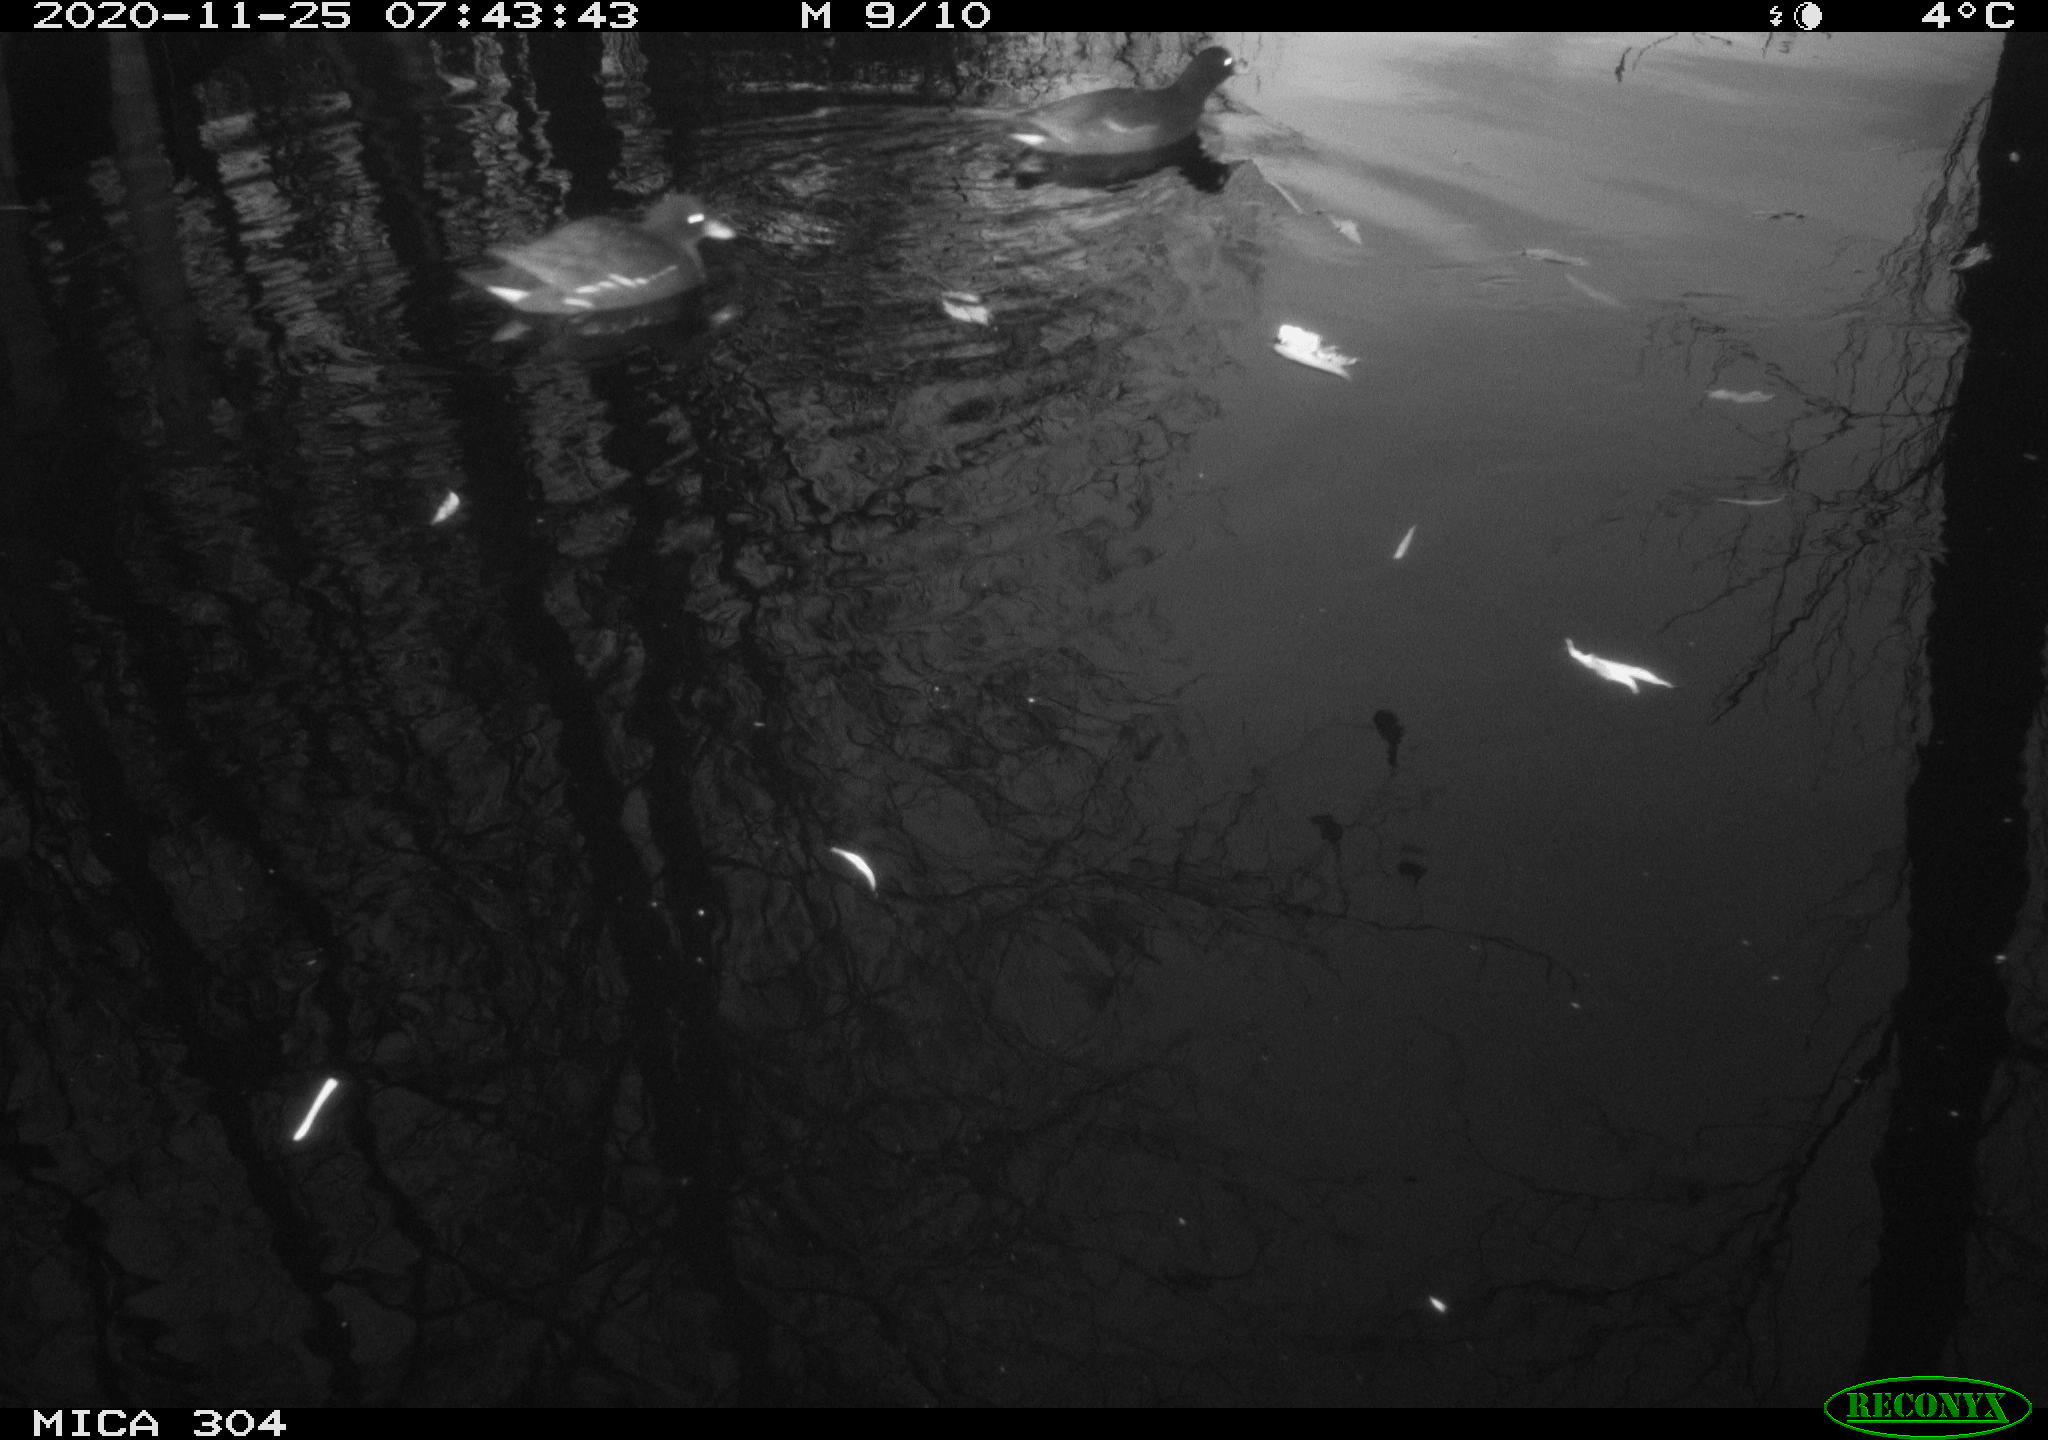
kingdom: Animalia
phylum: Chordata
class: Aves
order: Gruiformes
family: Rallidae
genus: Gallinula
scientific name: Gallinula chloropus
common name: Common moorhen
